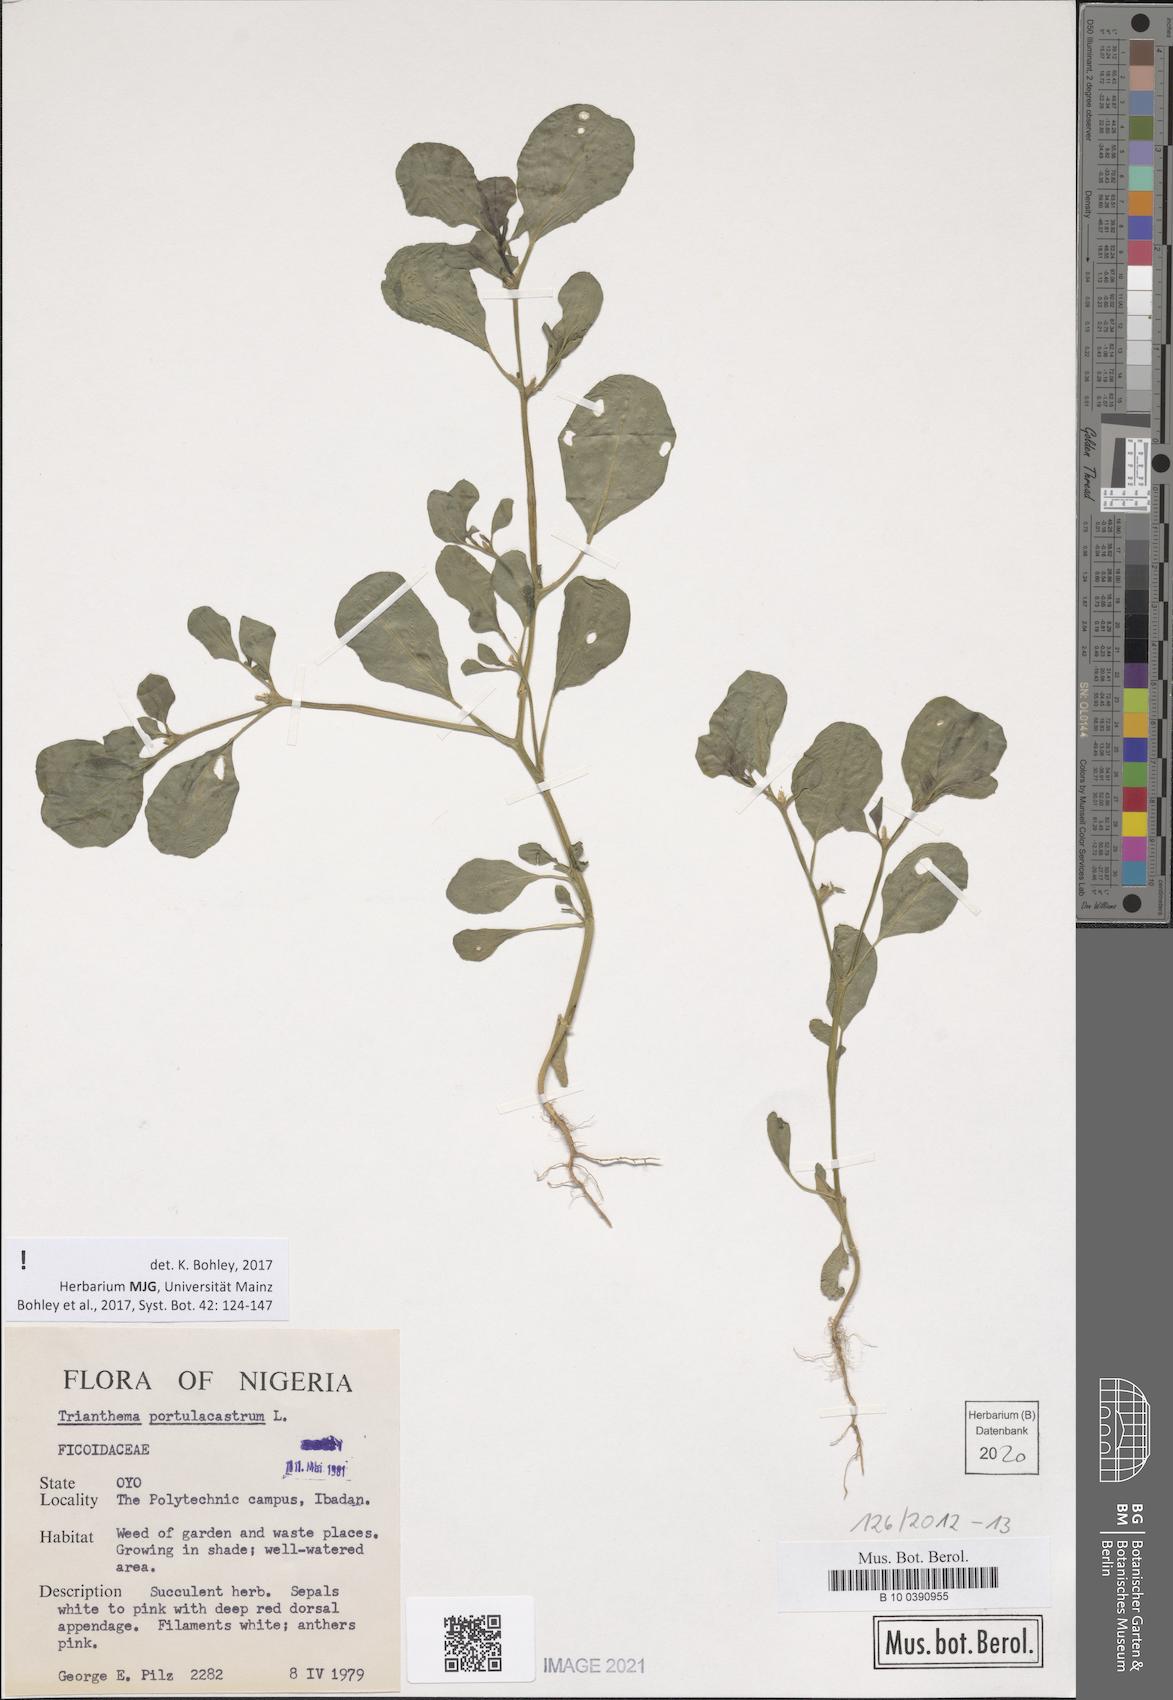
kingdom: Plantae
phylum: Tracheophyta
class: Magnoliopsida
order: Caryophyllales
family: Aizoaceae
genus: Trianthema
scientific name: Trianthema portulacastrum
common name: Desert horsepurslane
